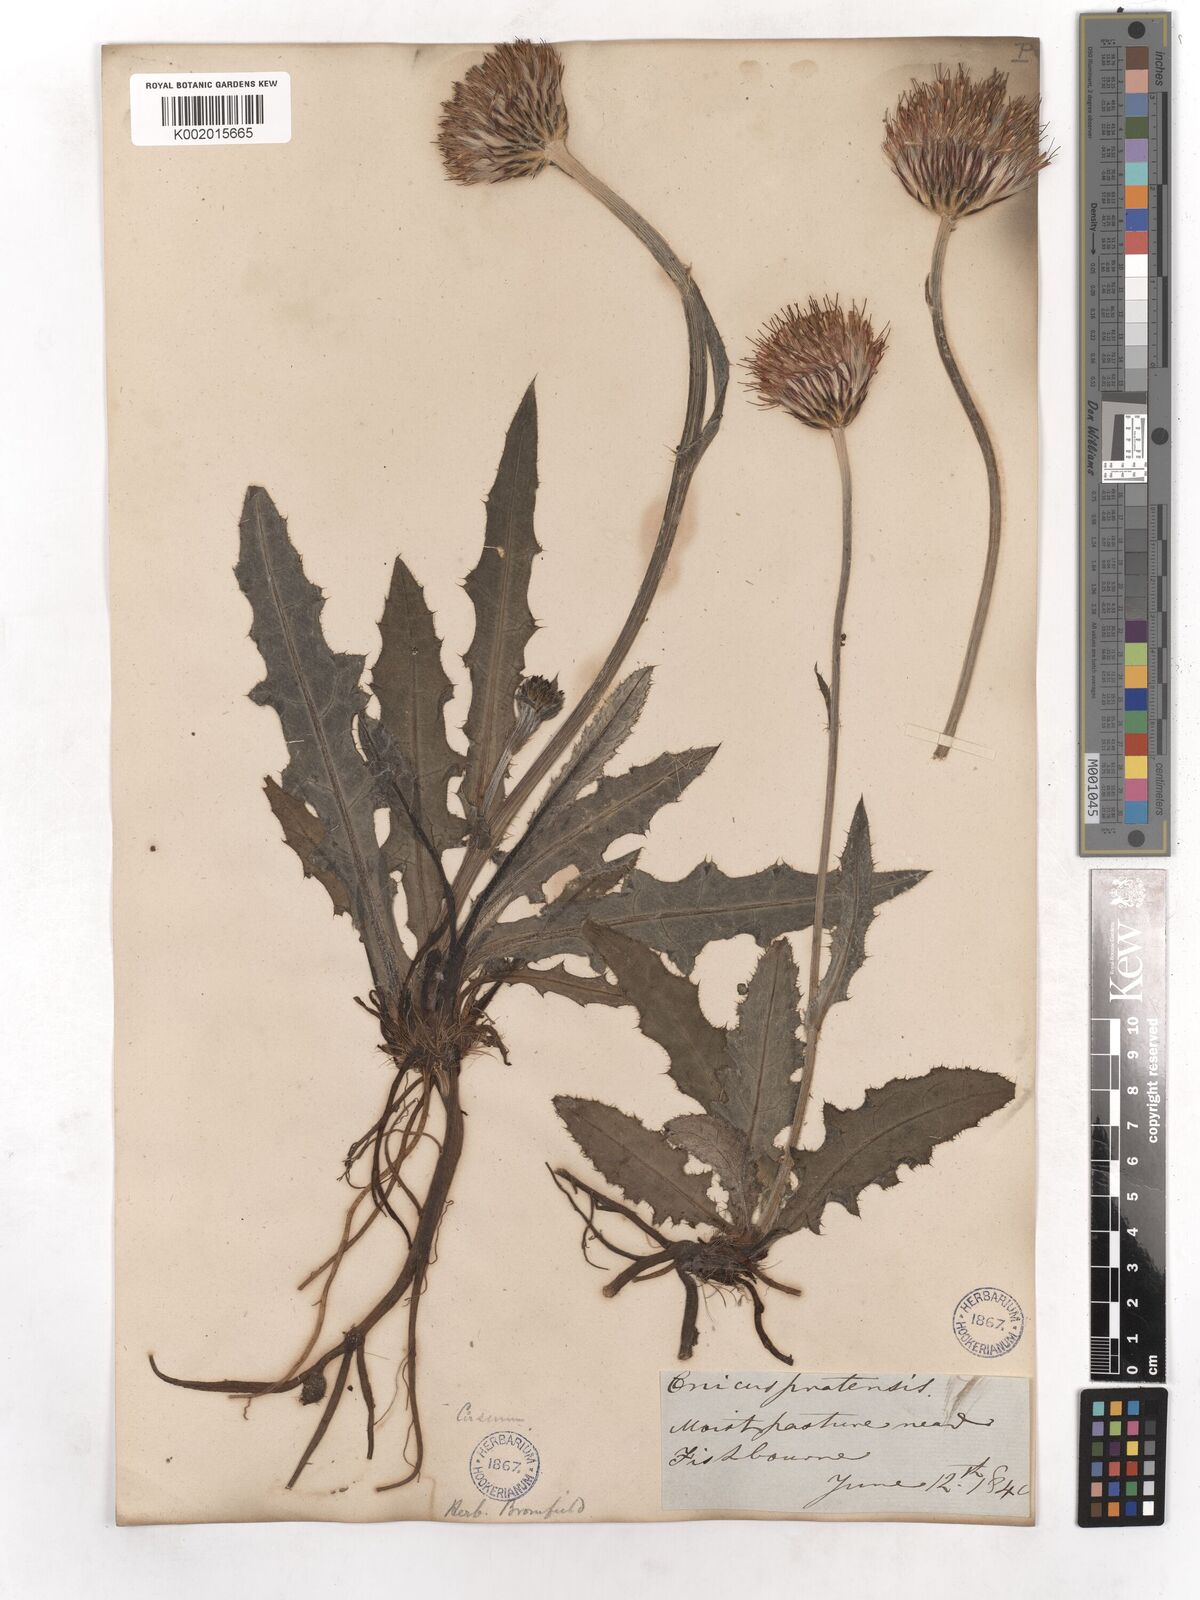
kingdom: Plantae
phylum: Tracheophyta
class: Magnoliopsida
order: Asterales
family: Asteraceae
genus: Cirsium
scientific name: Cirsium dissectum
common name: Meadow thistle
